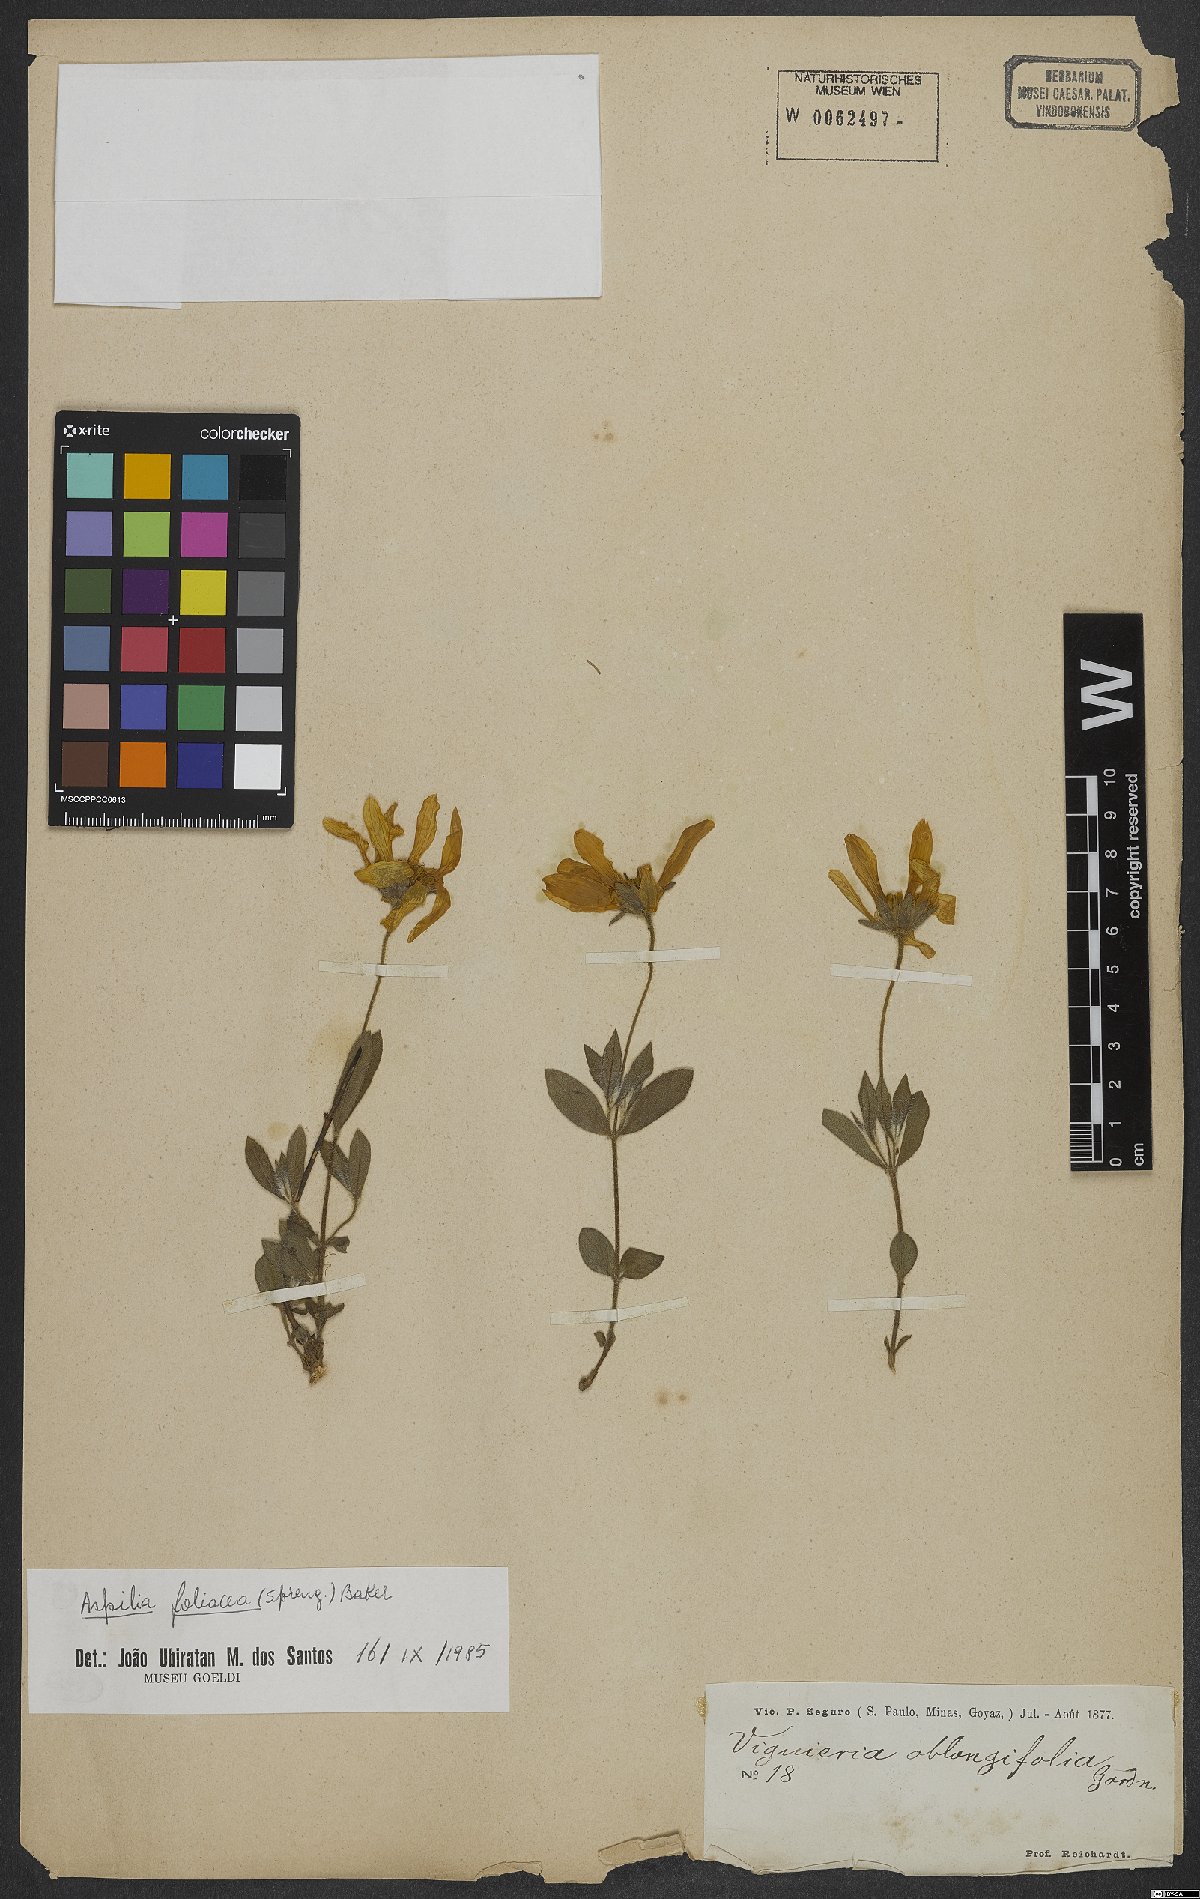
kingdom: Plantae
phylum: Tracheophyta
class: Magnoliopsida
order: Asterales
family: Asteraceae
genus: Aspilia
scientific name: Aspilia foliosa
